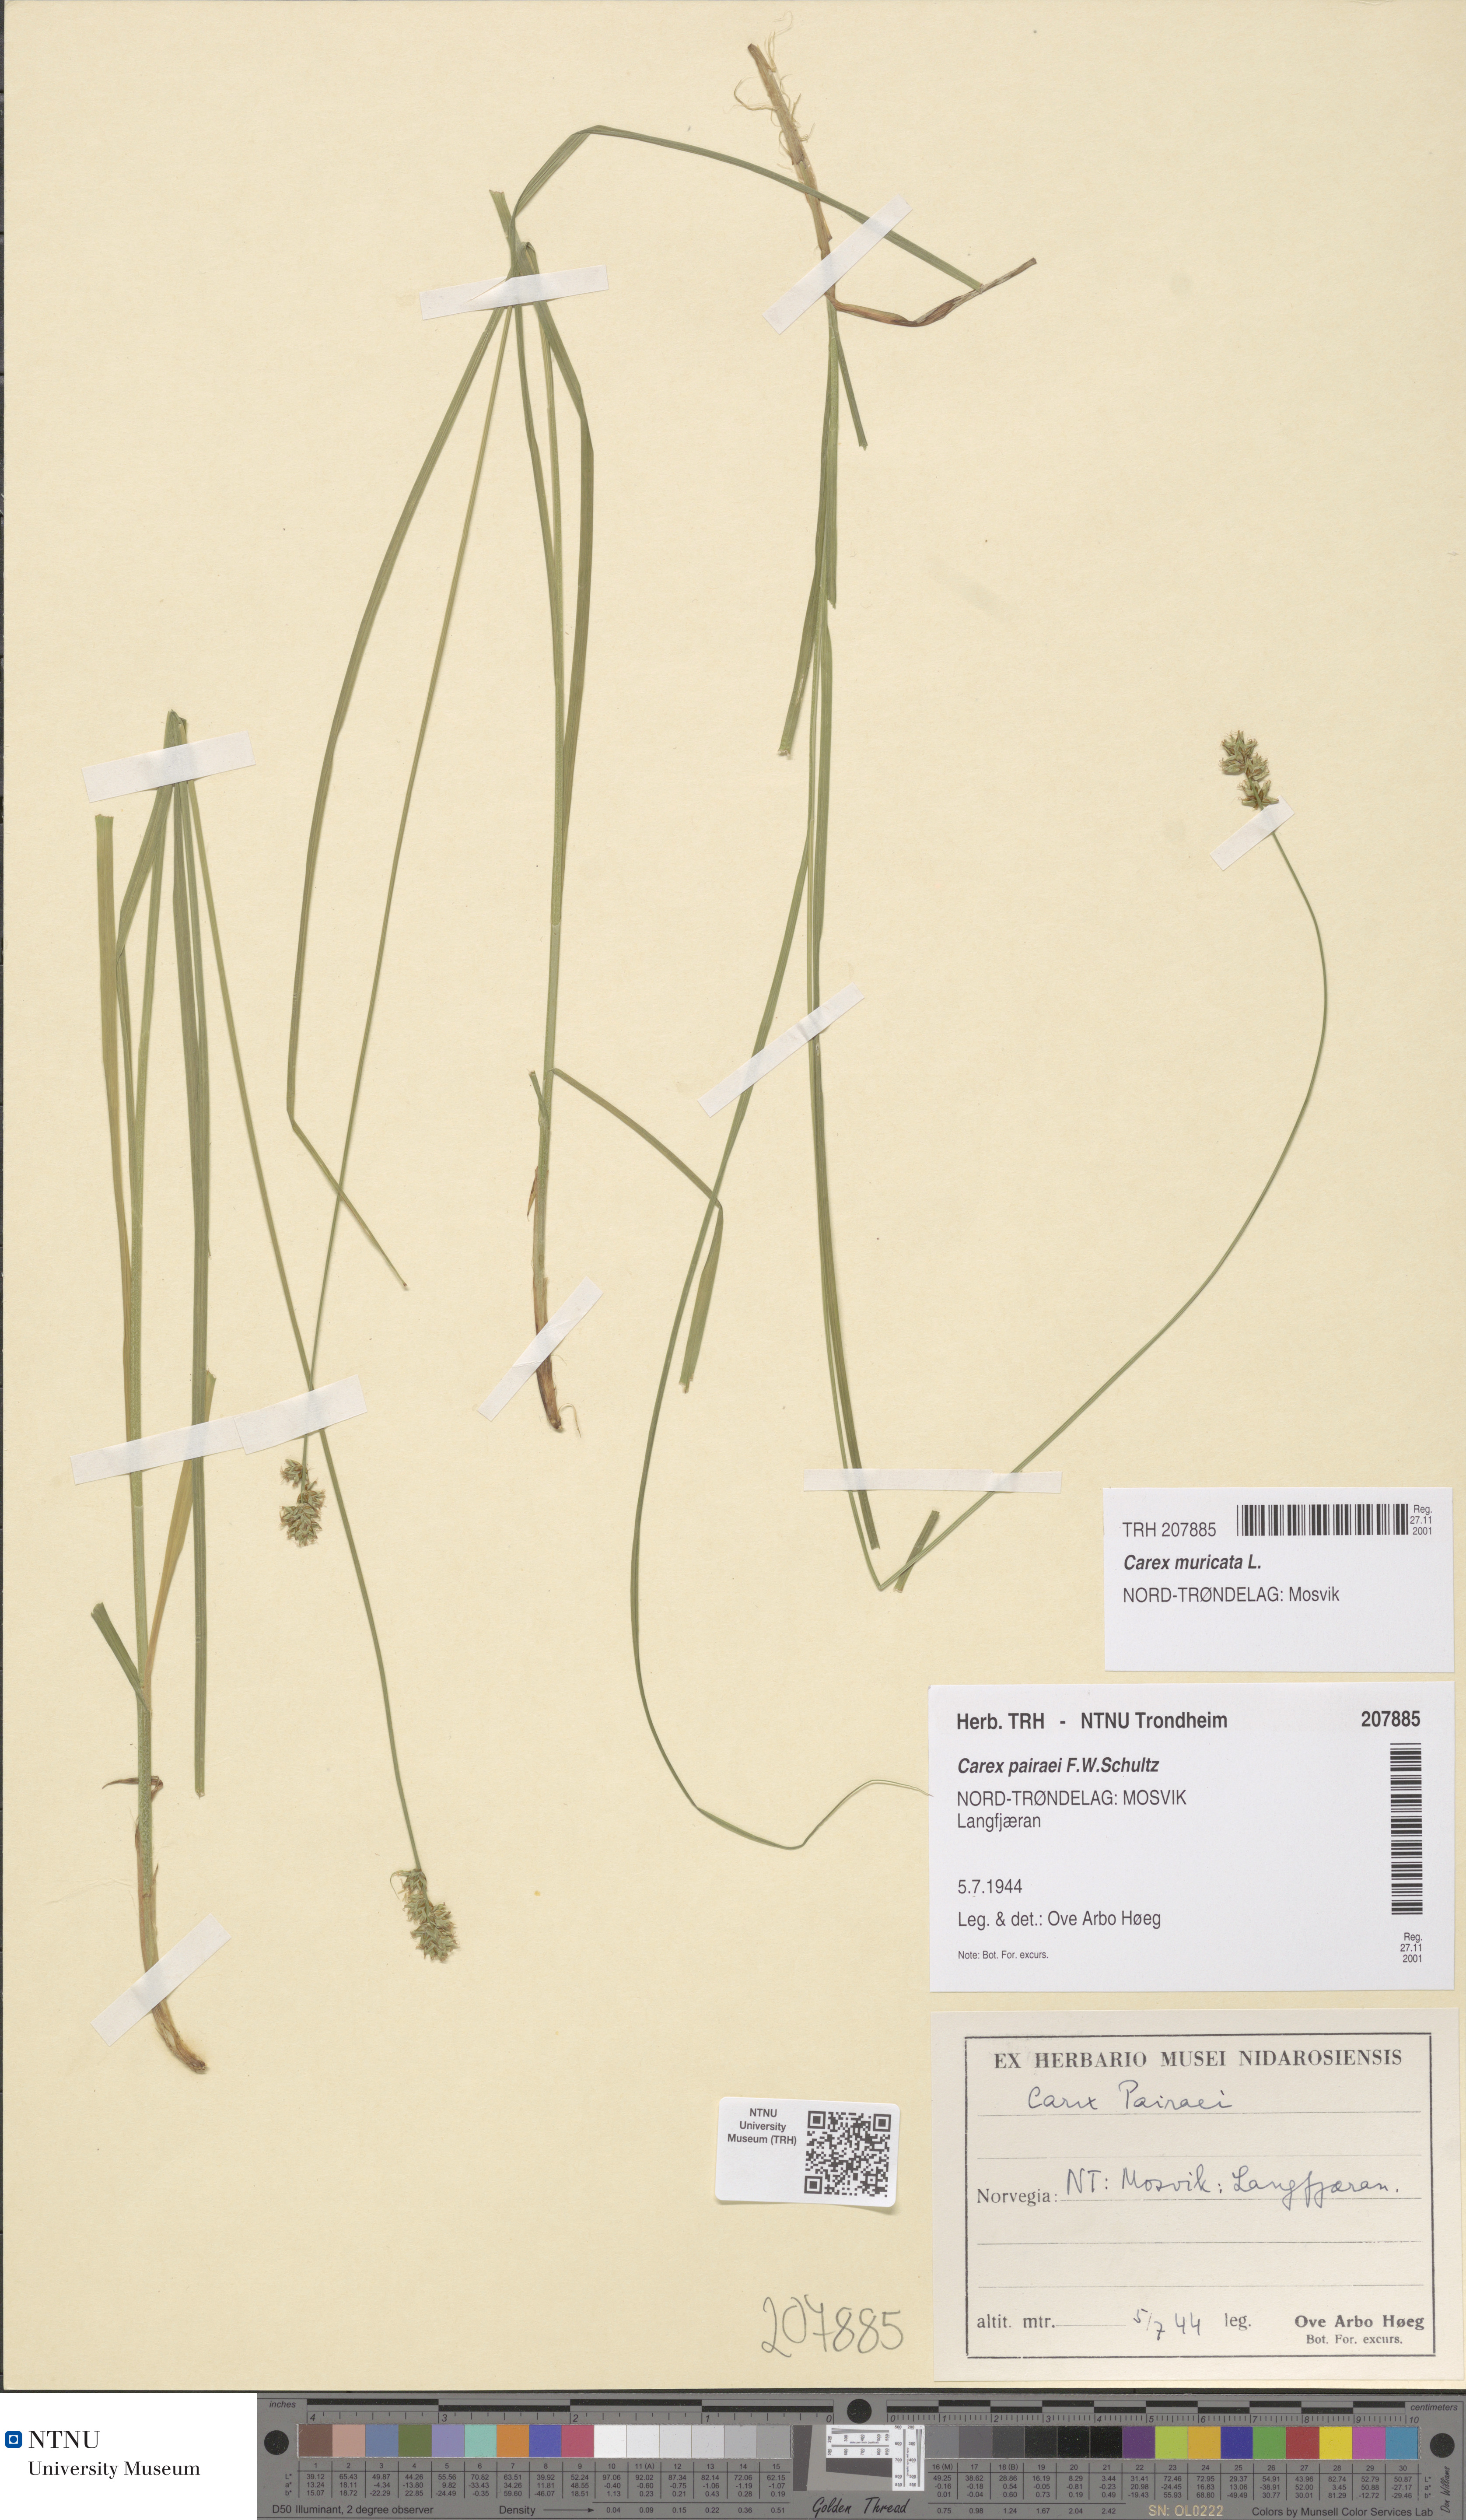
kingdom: Plantae
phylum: Tracheophyta
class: Liliopsida
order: Poales
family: Cyperaceae
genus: Carex
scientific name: Carex pairae
